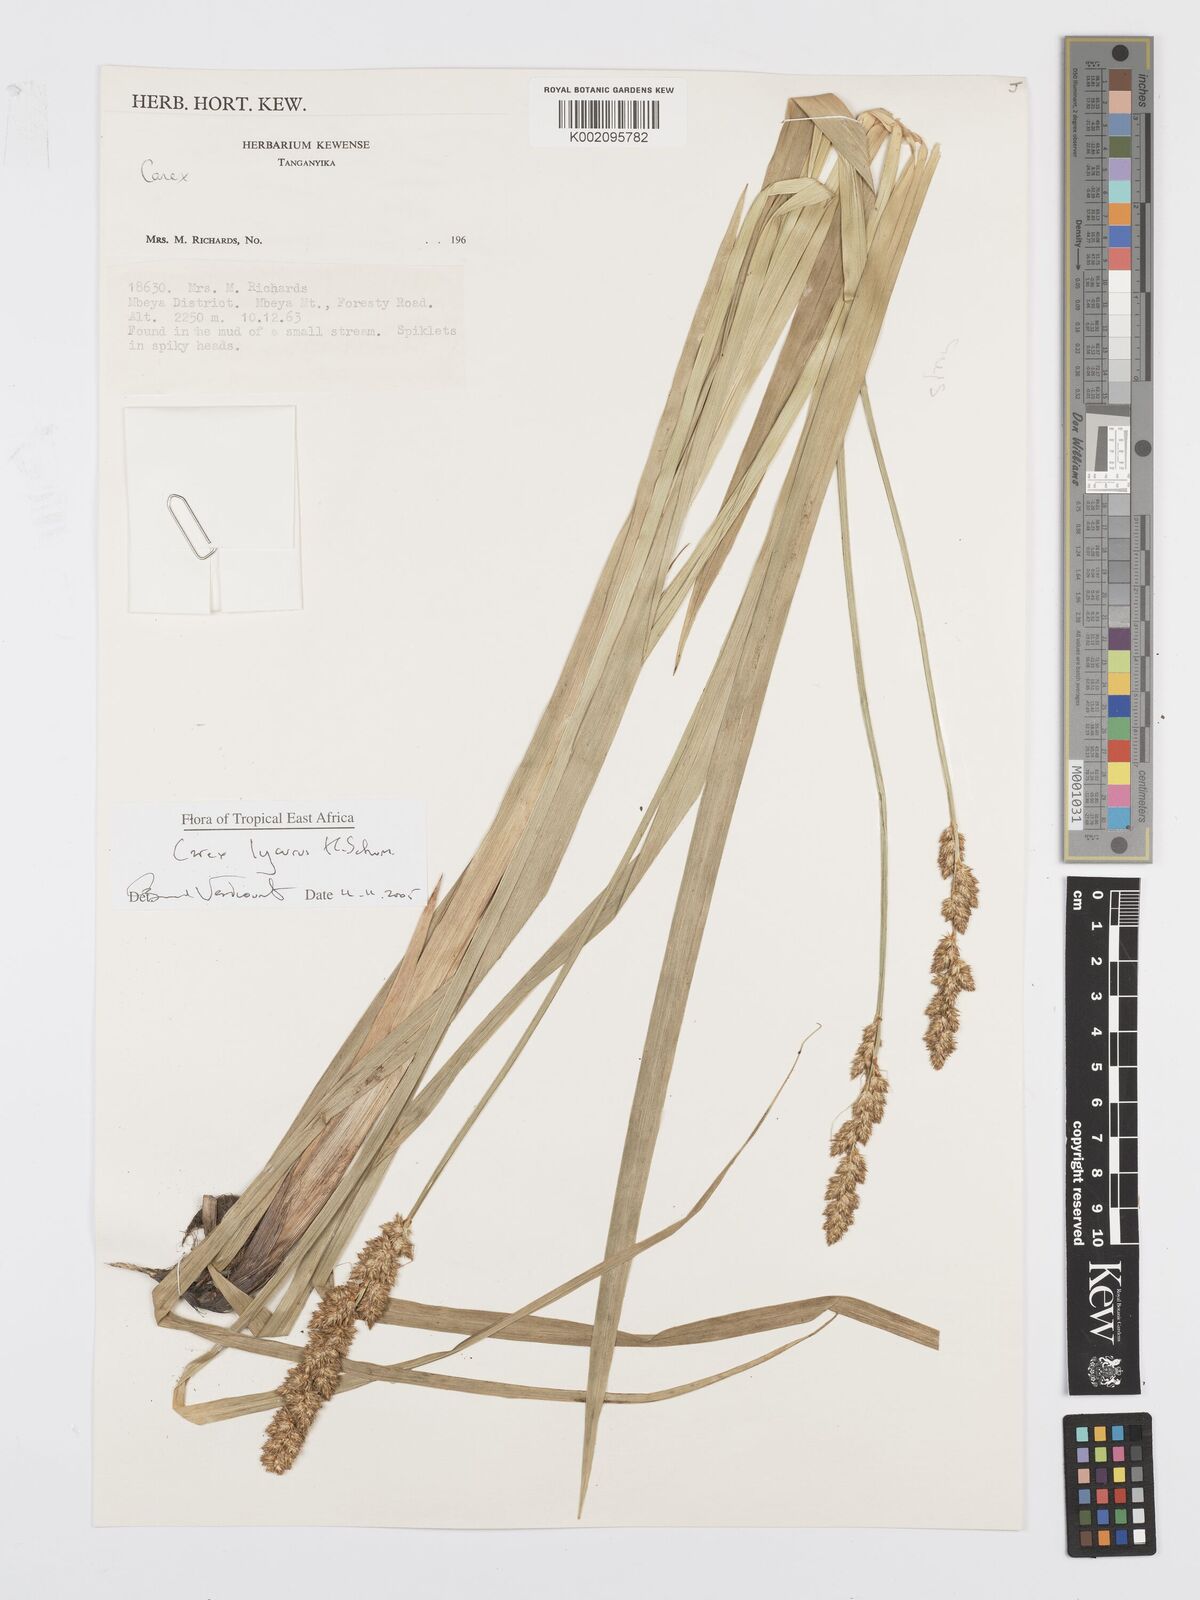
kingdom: Plantae
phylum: Tracheophyta
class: Liliopsida
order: Poales
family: Cyperaceae
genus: Carex
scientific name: Carex lycurus
